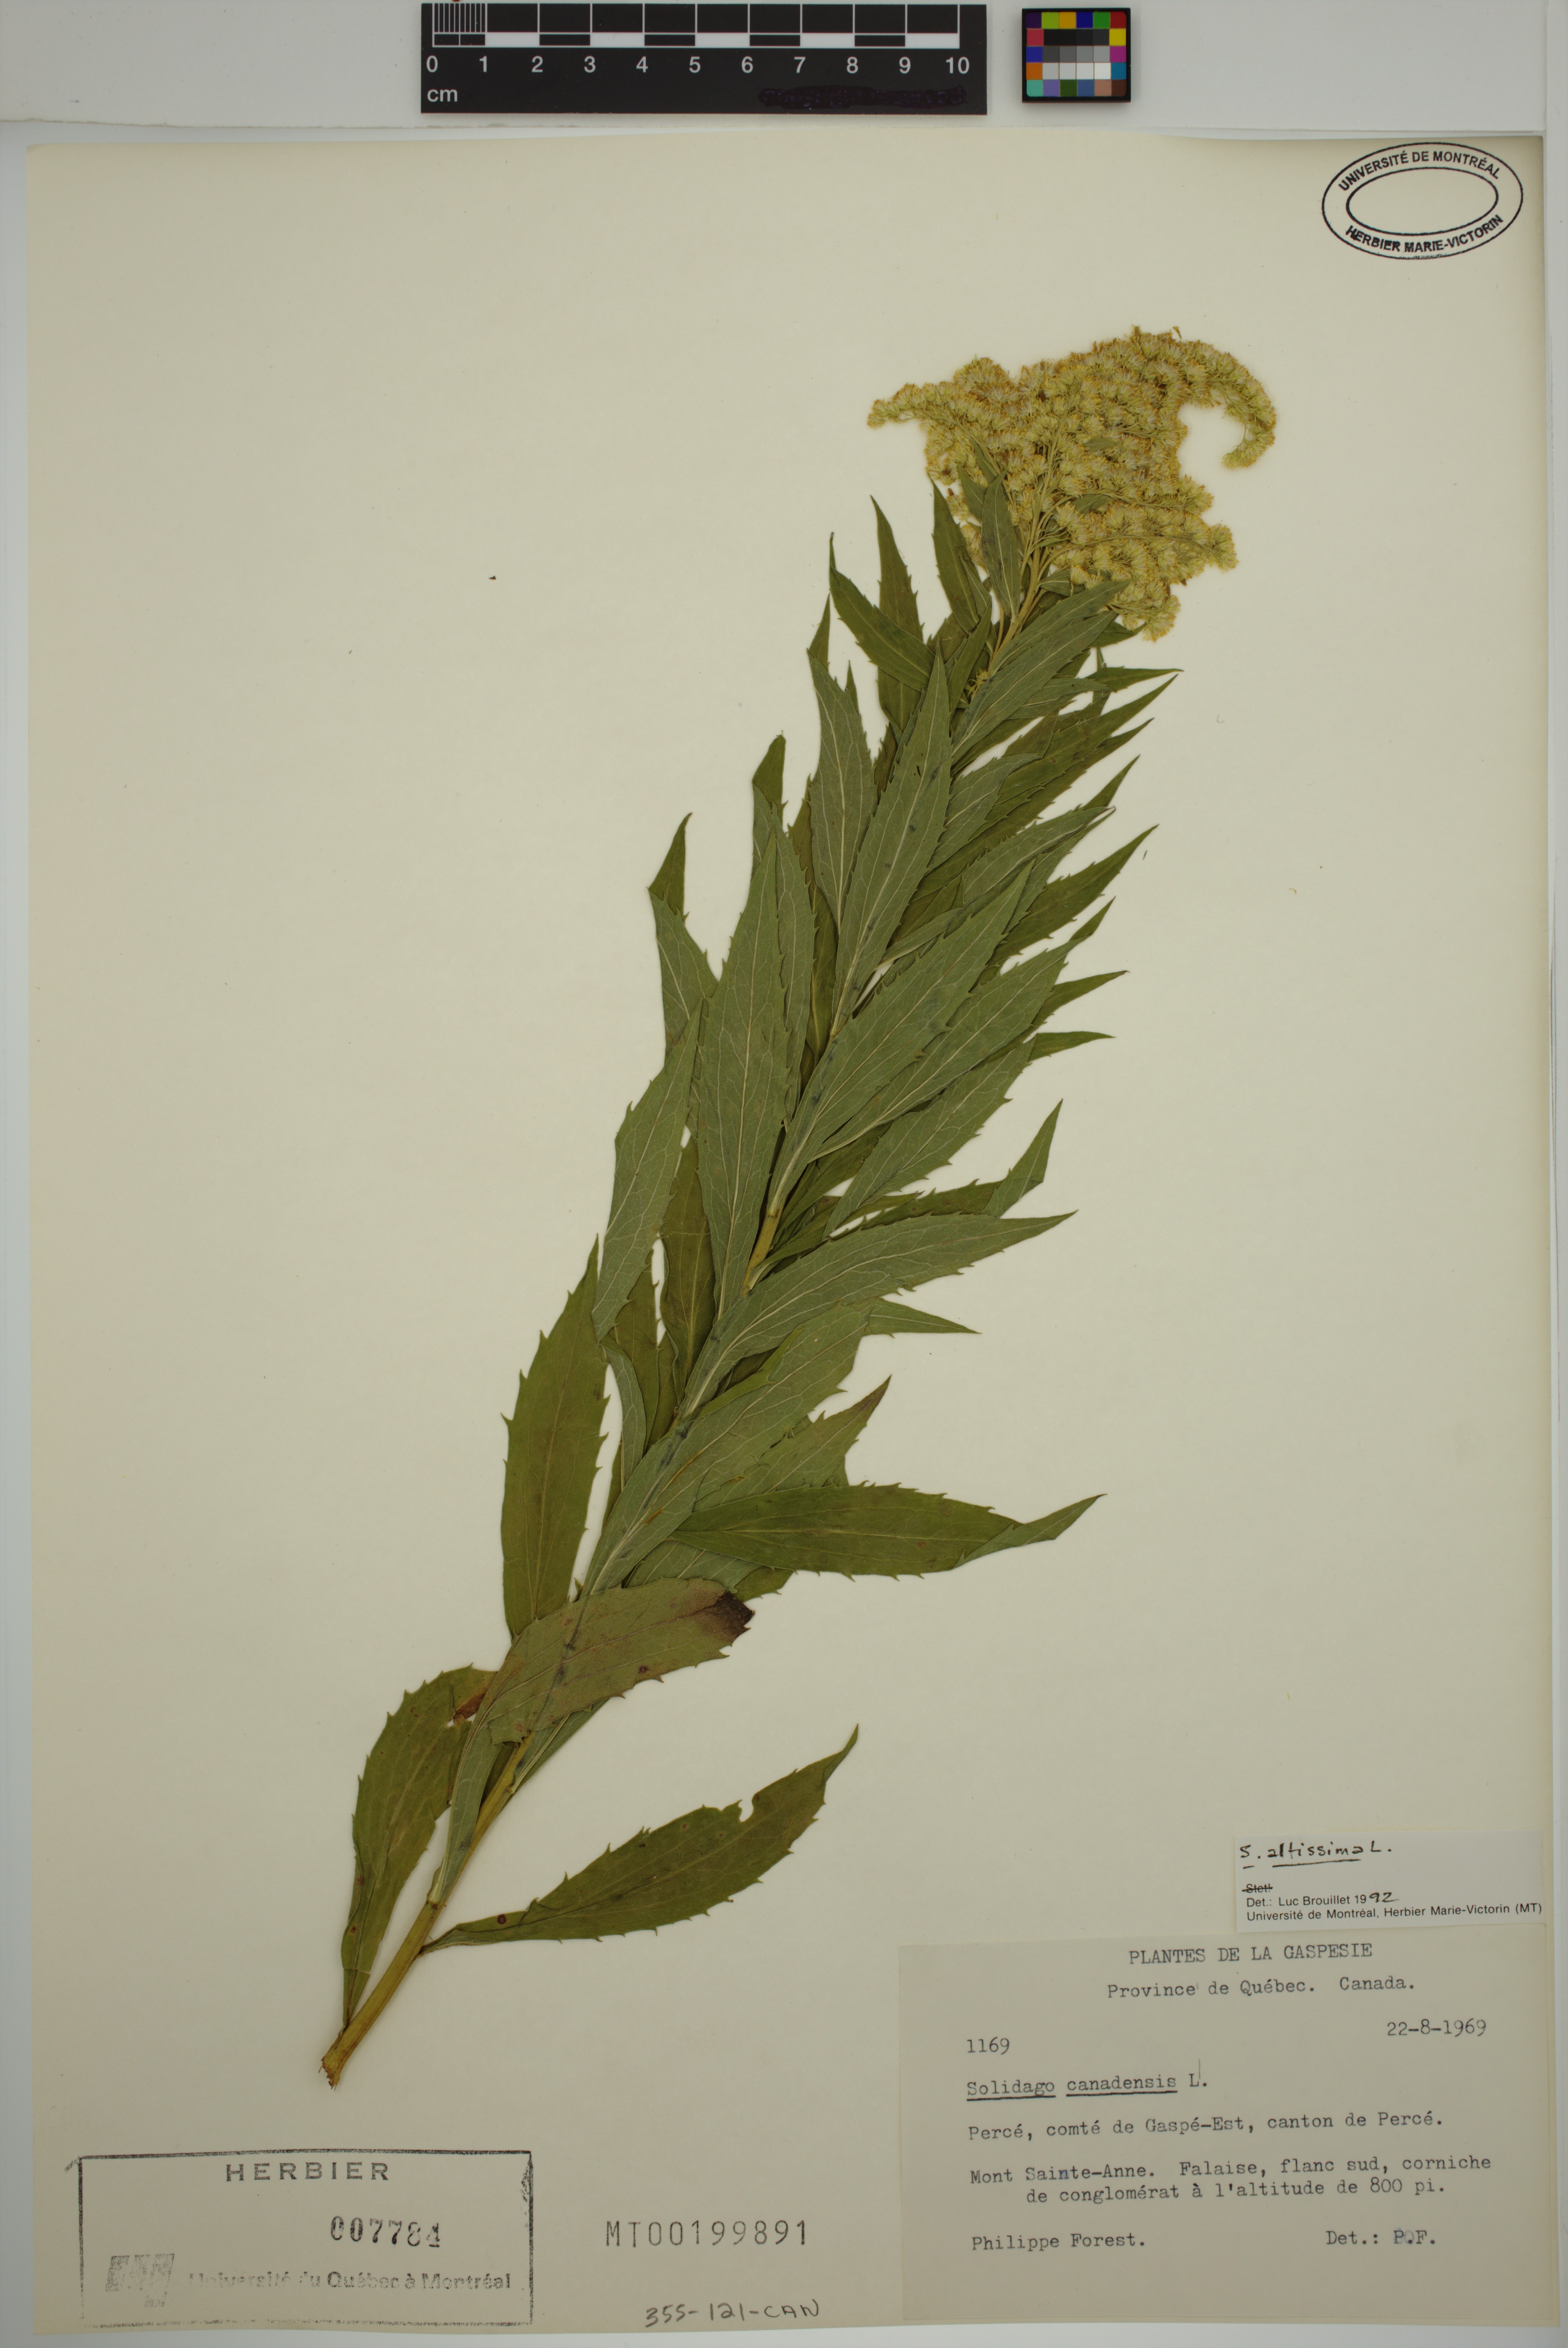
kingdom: Plantae
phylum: Tracheophyta
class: Magnoliopsida
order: Asterales
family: Asteraceae
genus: Solidago
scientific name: Solidago fallax
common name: Big-toothed canada goldenrod
